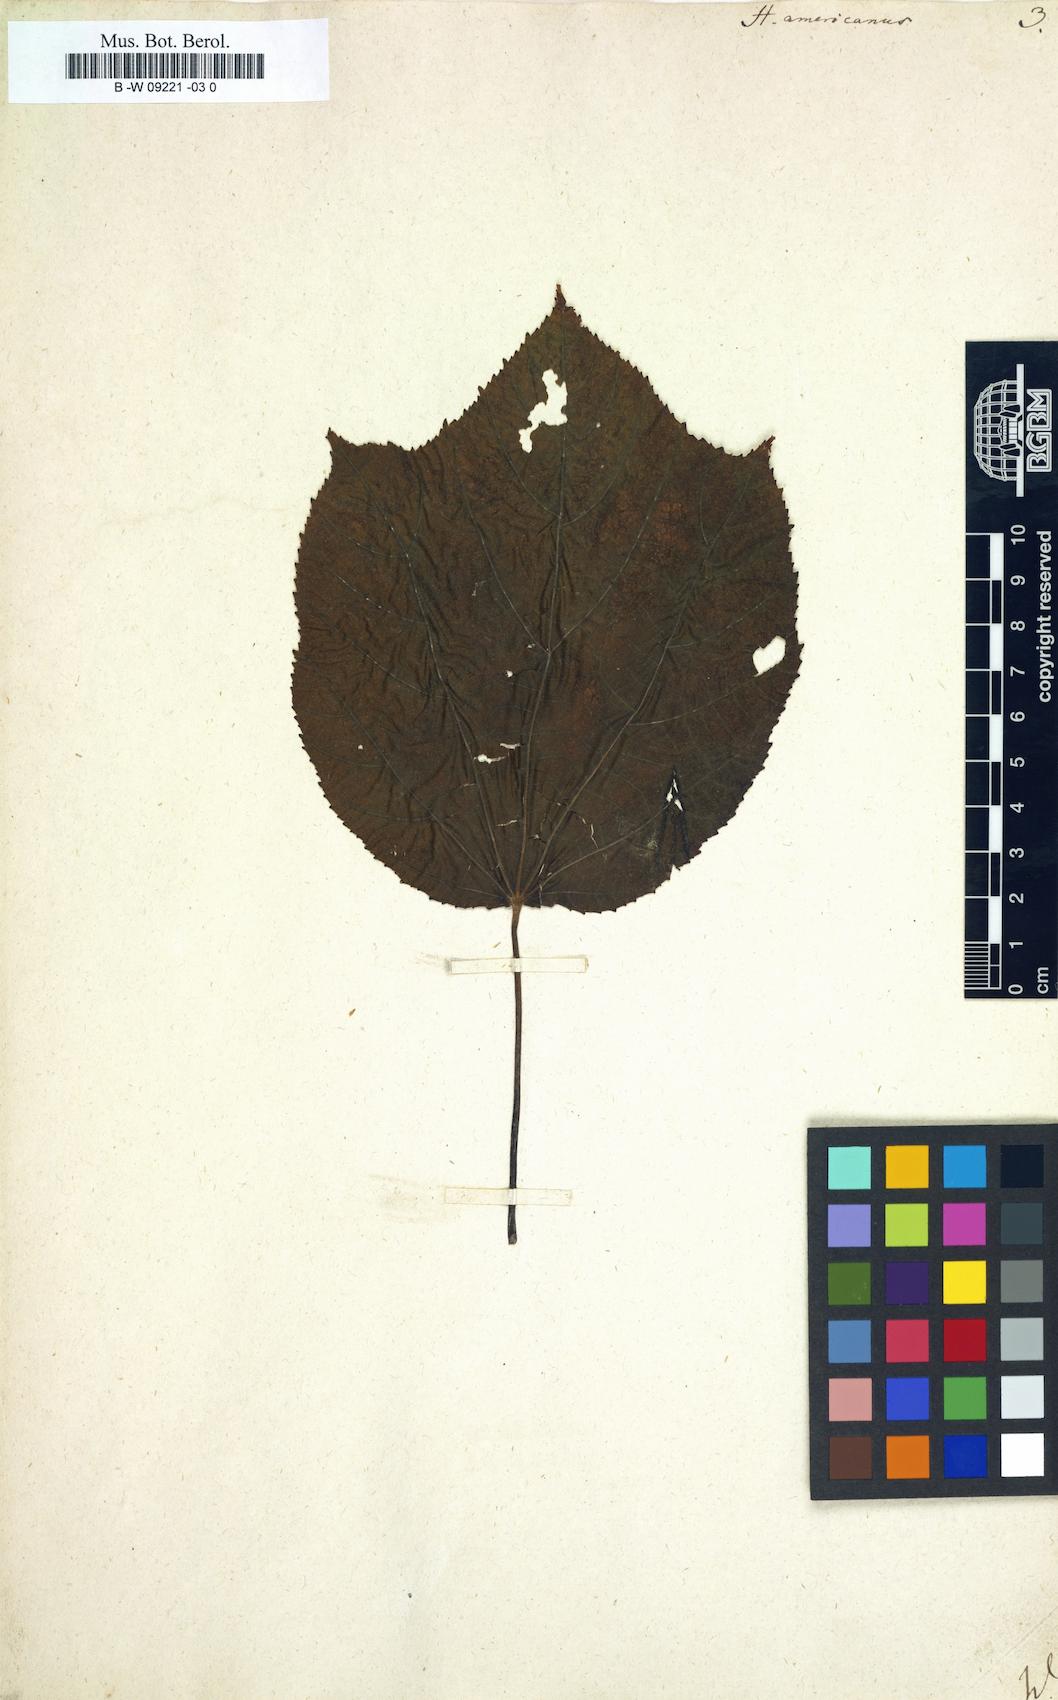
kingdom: Plantae
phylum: Tracheophyta
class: Magnoliopsida
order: Malvales
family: Malvaceae
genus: Heliocarpus
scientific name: Heliocarpus americanus
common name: White moho
